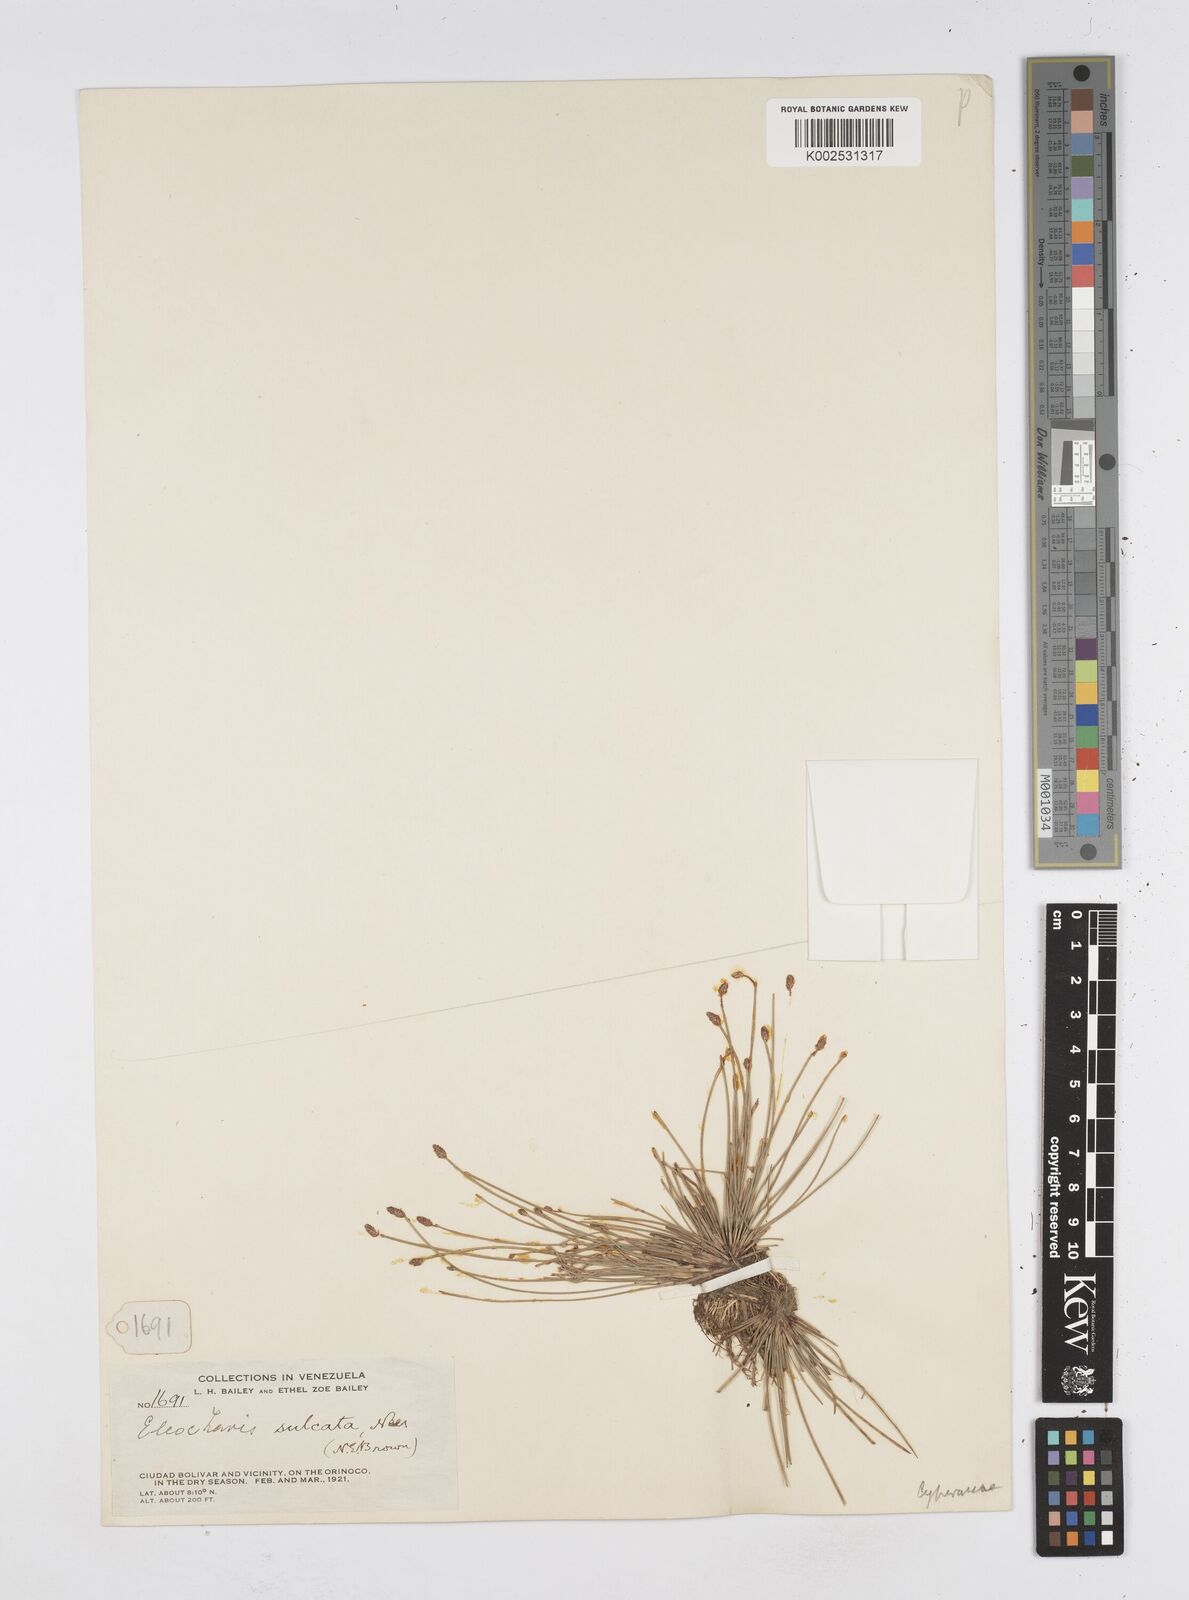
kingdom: Plantae
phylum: Tracheophyta
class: Liliopsida
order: Poales
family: Cyperaceae
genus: Eleocharis
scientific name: Eleocharis filiculmis
